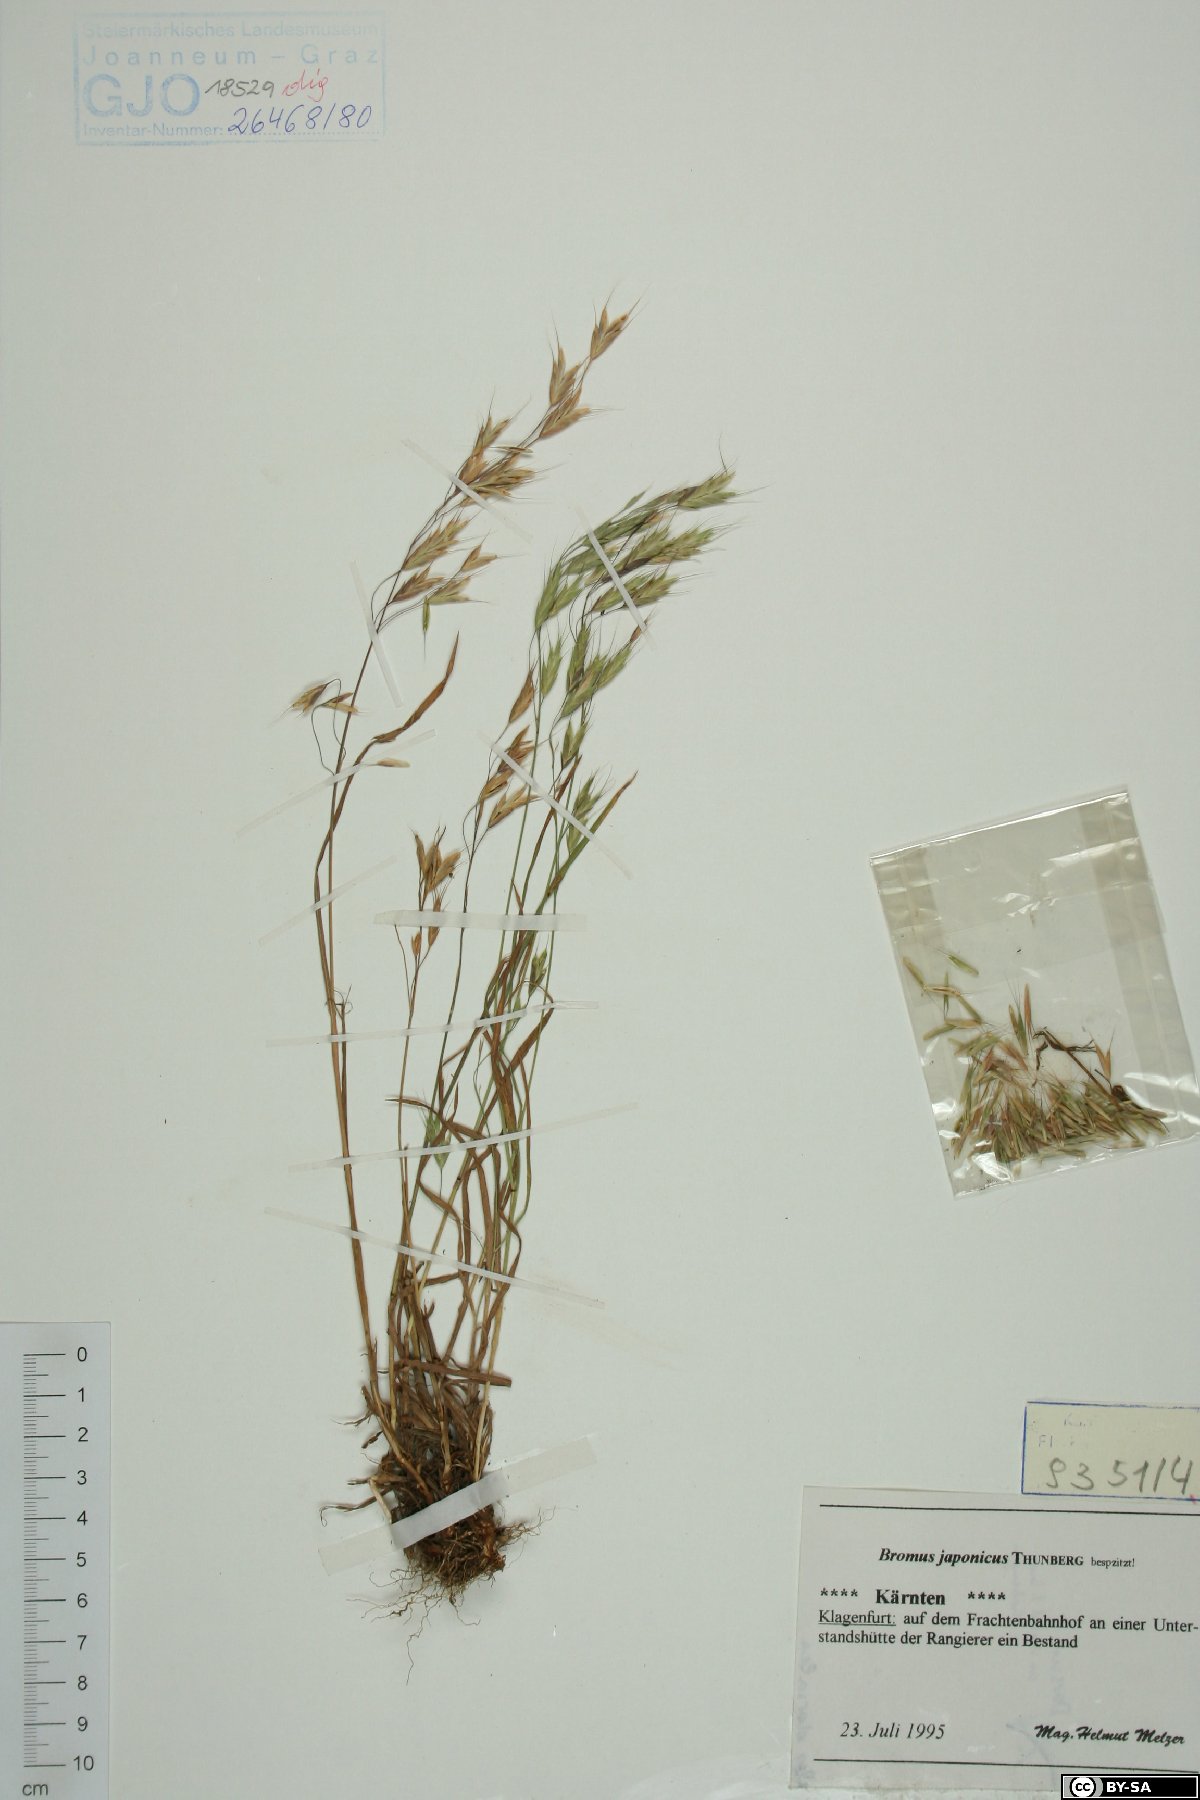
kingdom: Plantae
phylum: Tracheophyta
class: Liliopsida
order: Poales
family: Poaceae
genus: Bromus
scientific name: Bromus japonicus
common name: Japanese brome
